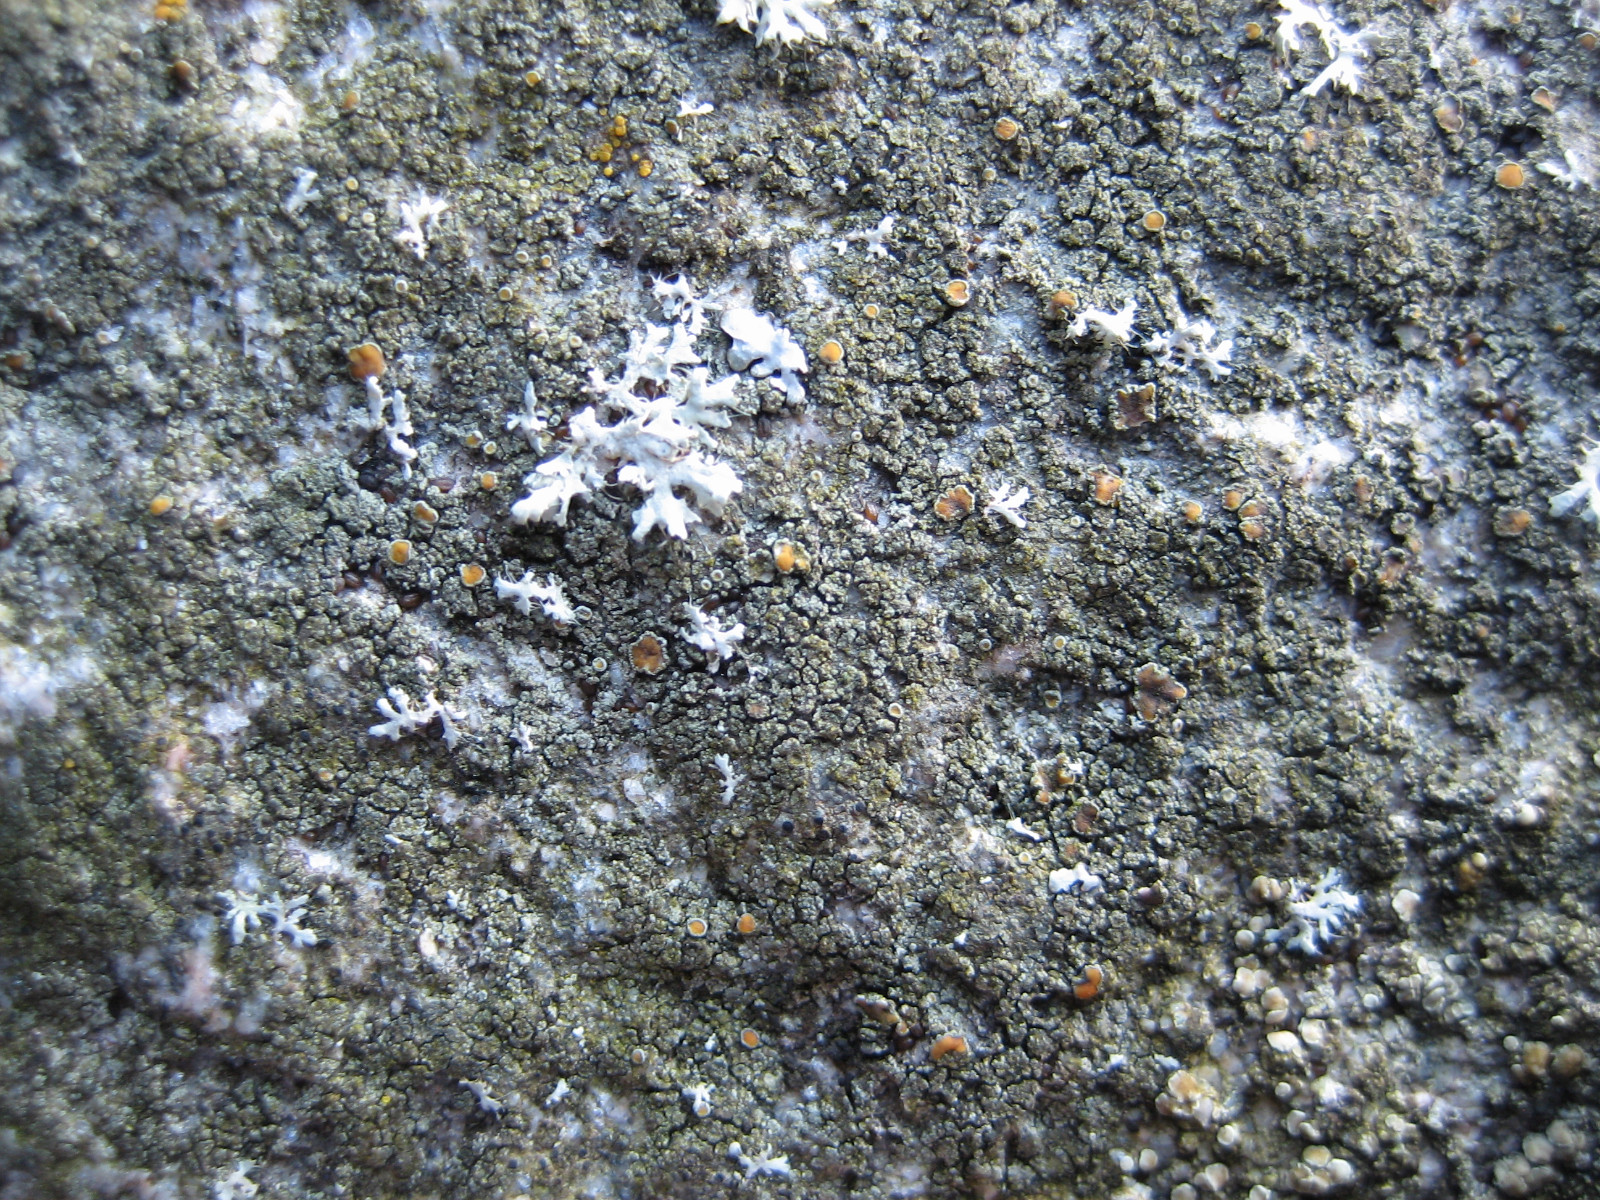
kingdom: Fungi
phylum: Ascomycota
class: Lecanoromycetes
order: Teloschistales
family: Teloschistaceae
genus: Caloplaca
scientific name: Caloplaca chlorina
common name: mørkskællet orangelav
